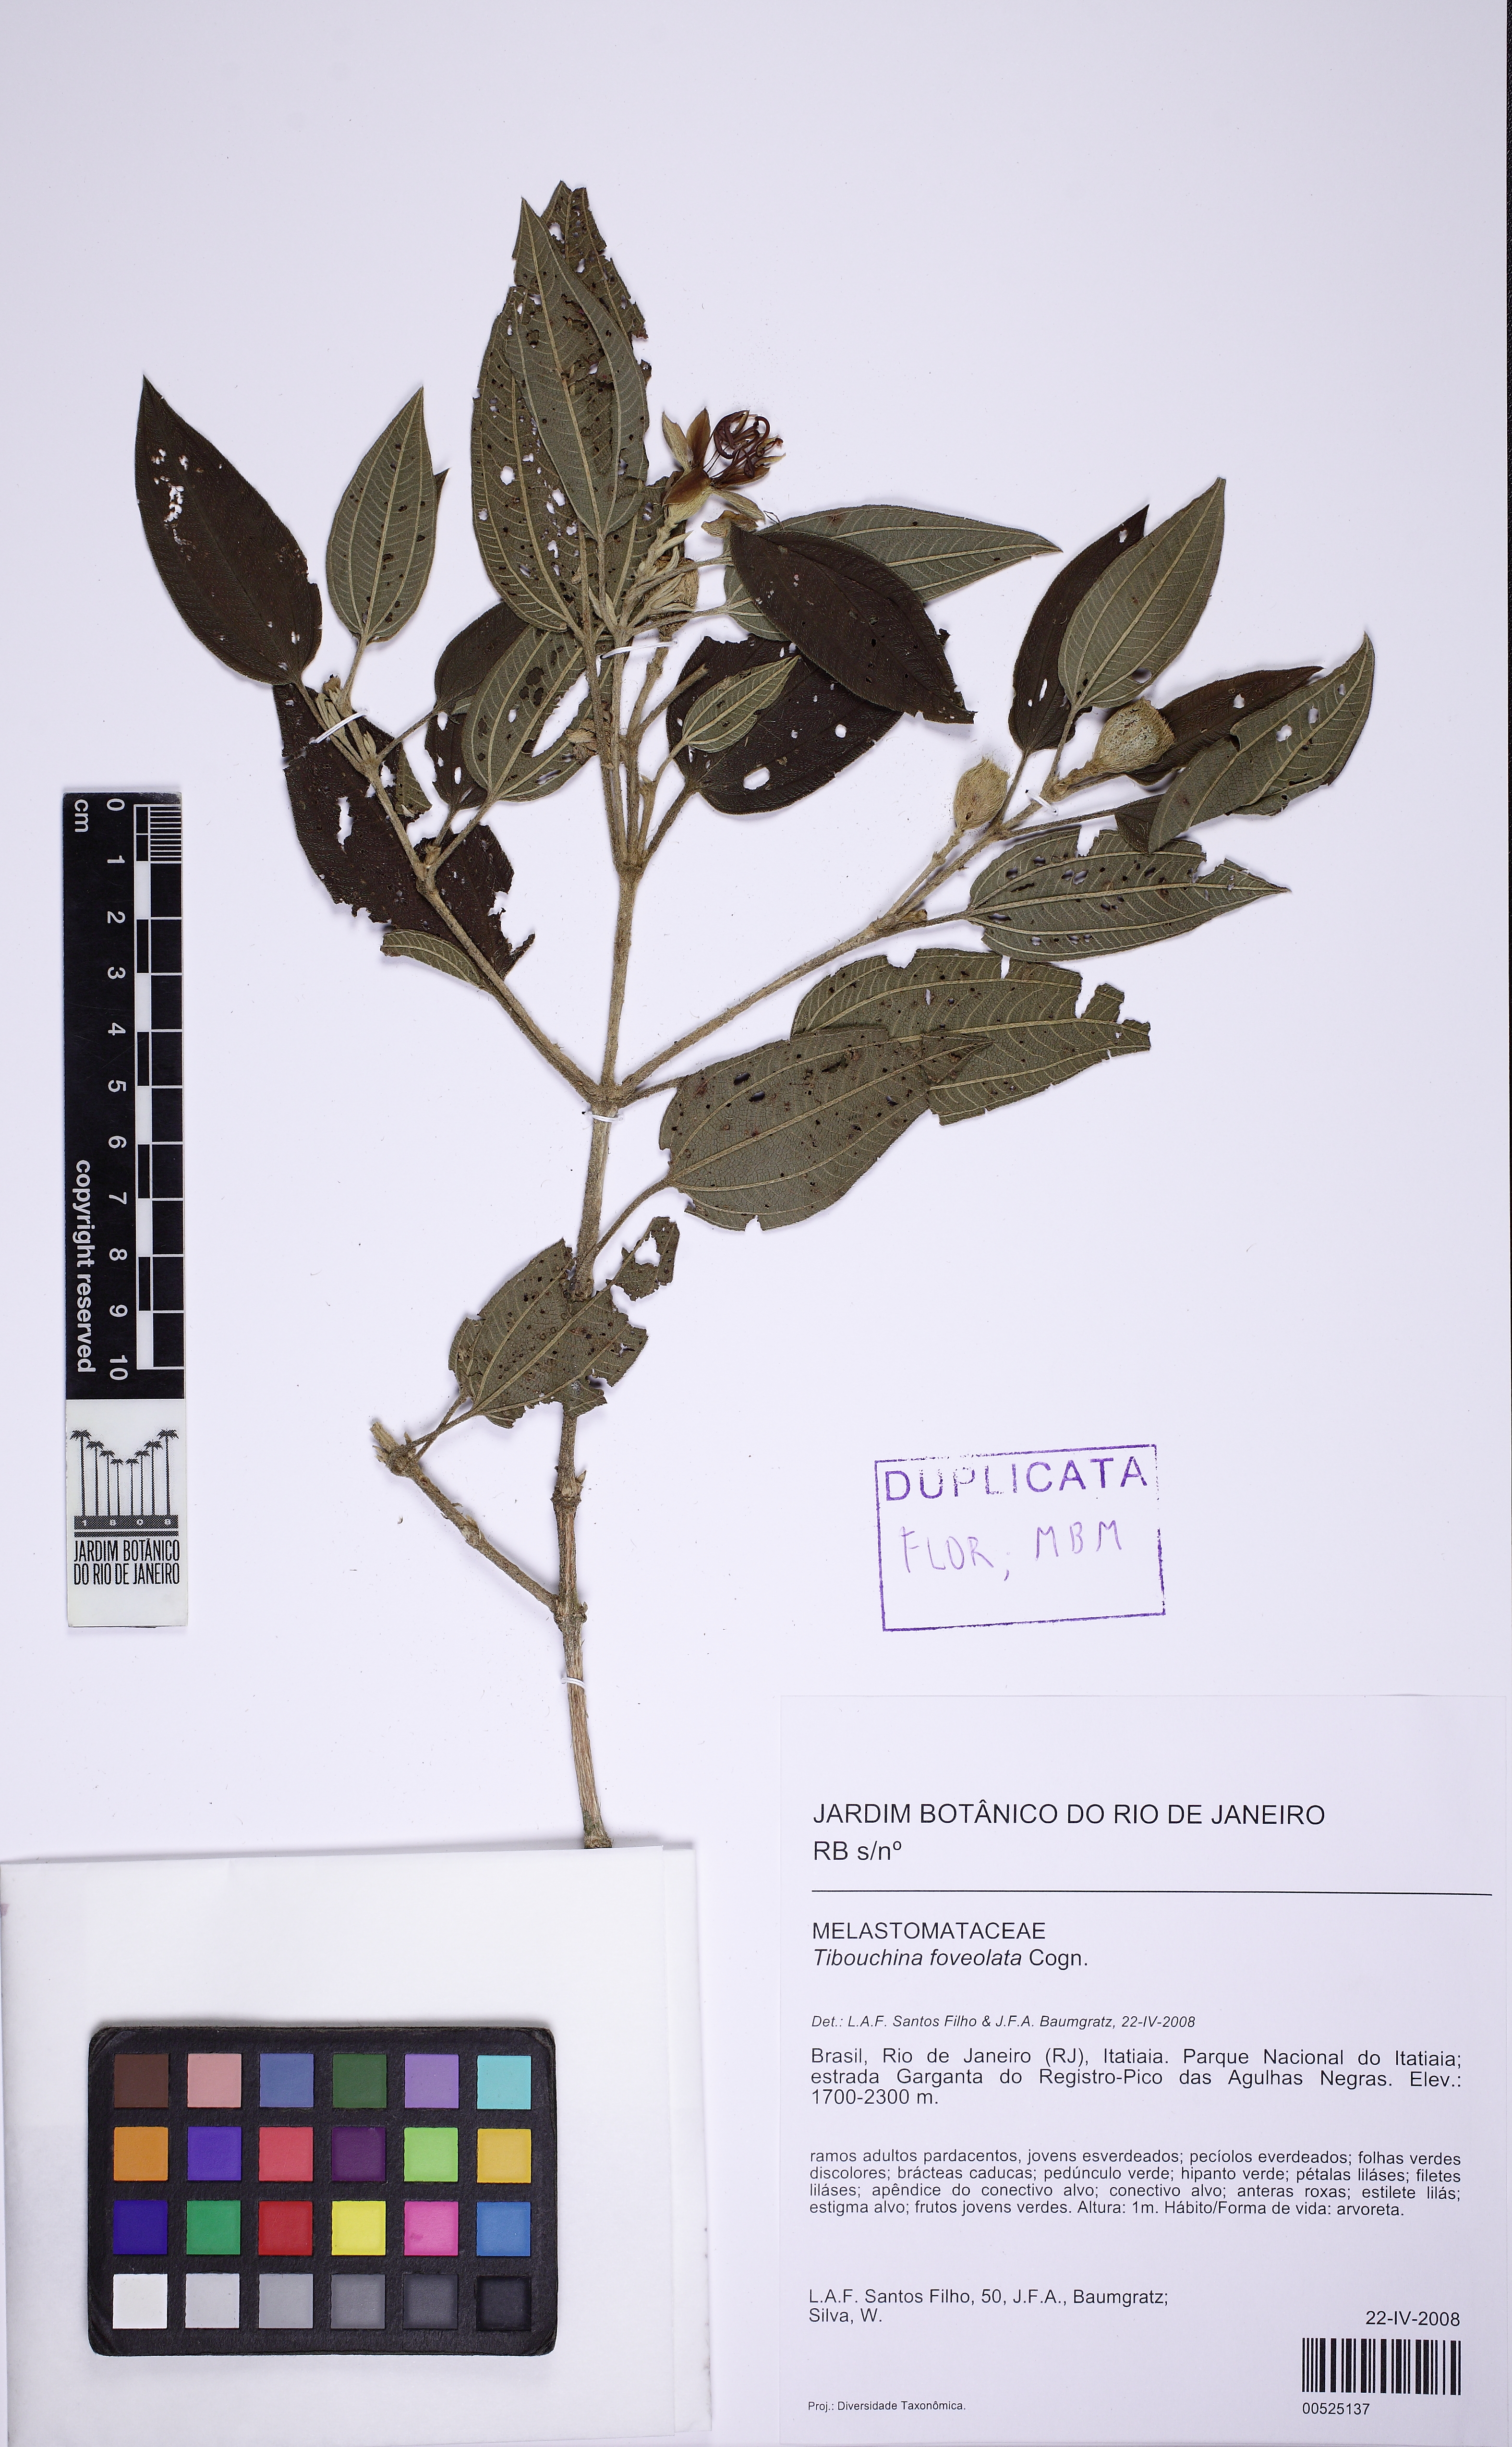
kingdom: Plantae
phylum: Tracheophyta
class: Magnoliopsida
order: Myrtales
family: Melastomataceae
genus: Pleroma
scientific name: Pleroma foveolatum
